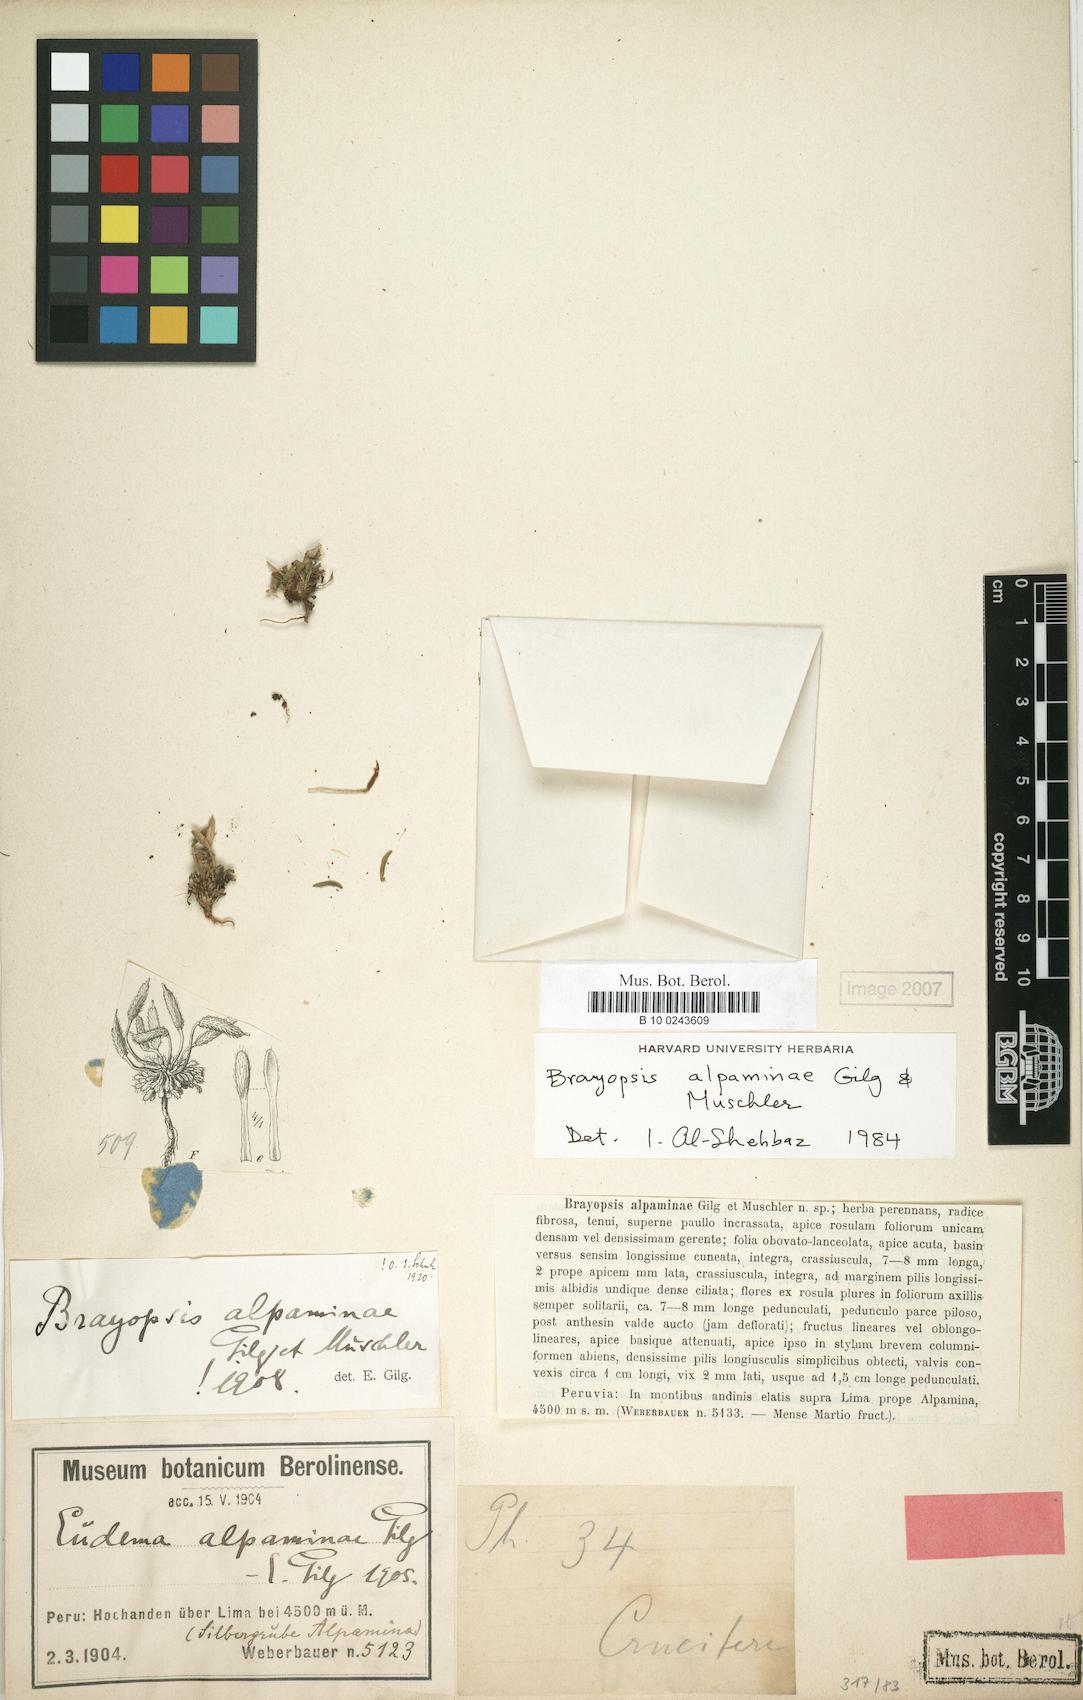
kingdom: Plantae
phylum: Tracheophyta
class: Magnoliopsida
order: Brassicales
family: Brassicaceae
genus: Brayopsis
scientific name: Brayopsis alpaminae
